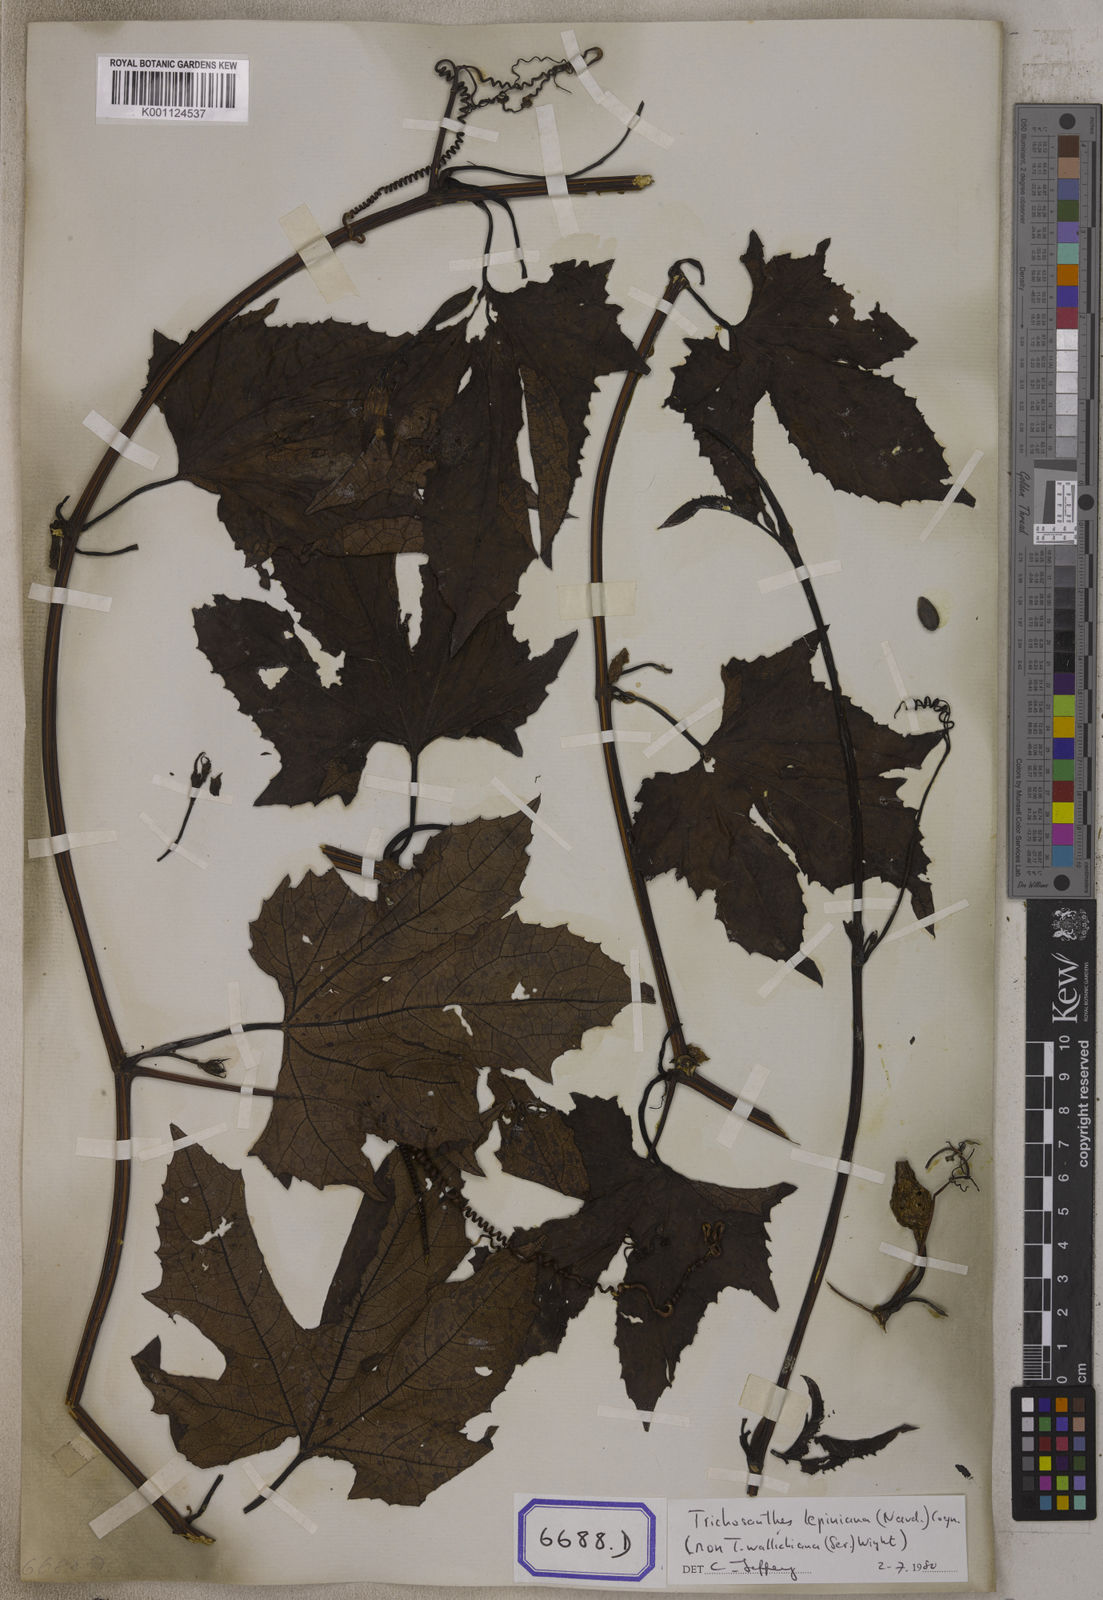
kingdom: Plantae
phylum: Tracheophyta
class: Magnoliopsida
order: Cucurbitales
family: Cucurbitaceae
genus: Trichosanthes
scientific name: Trichosanthes
